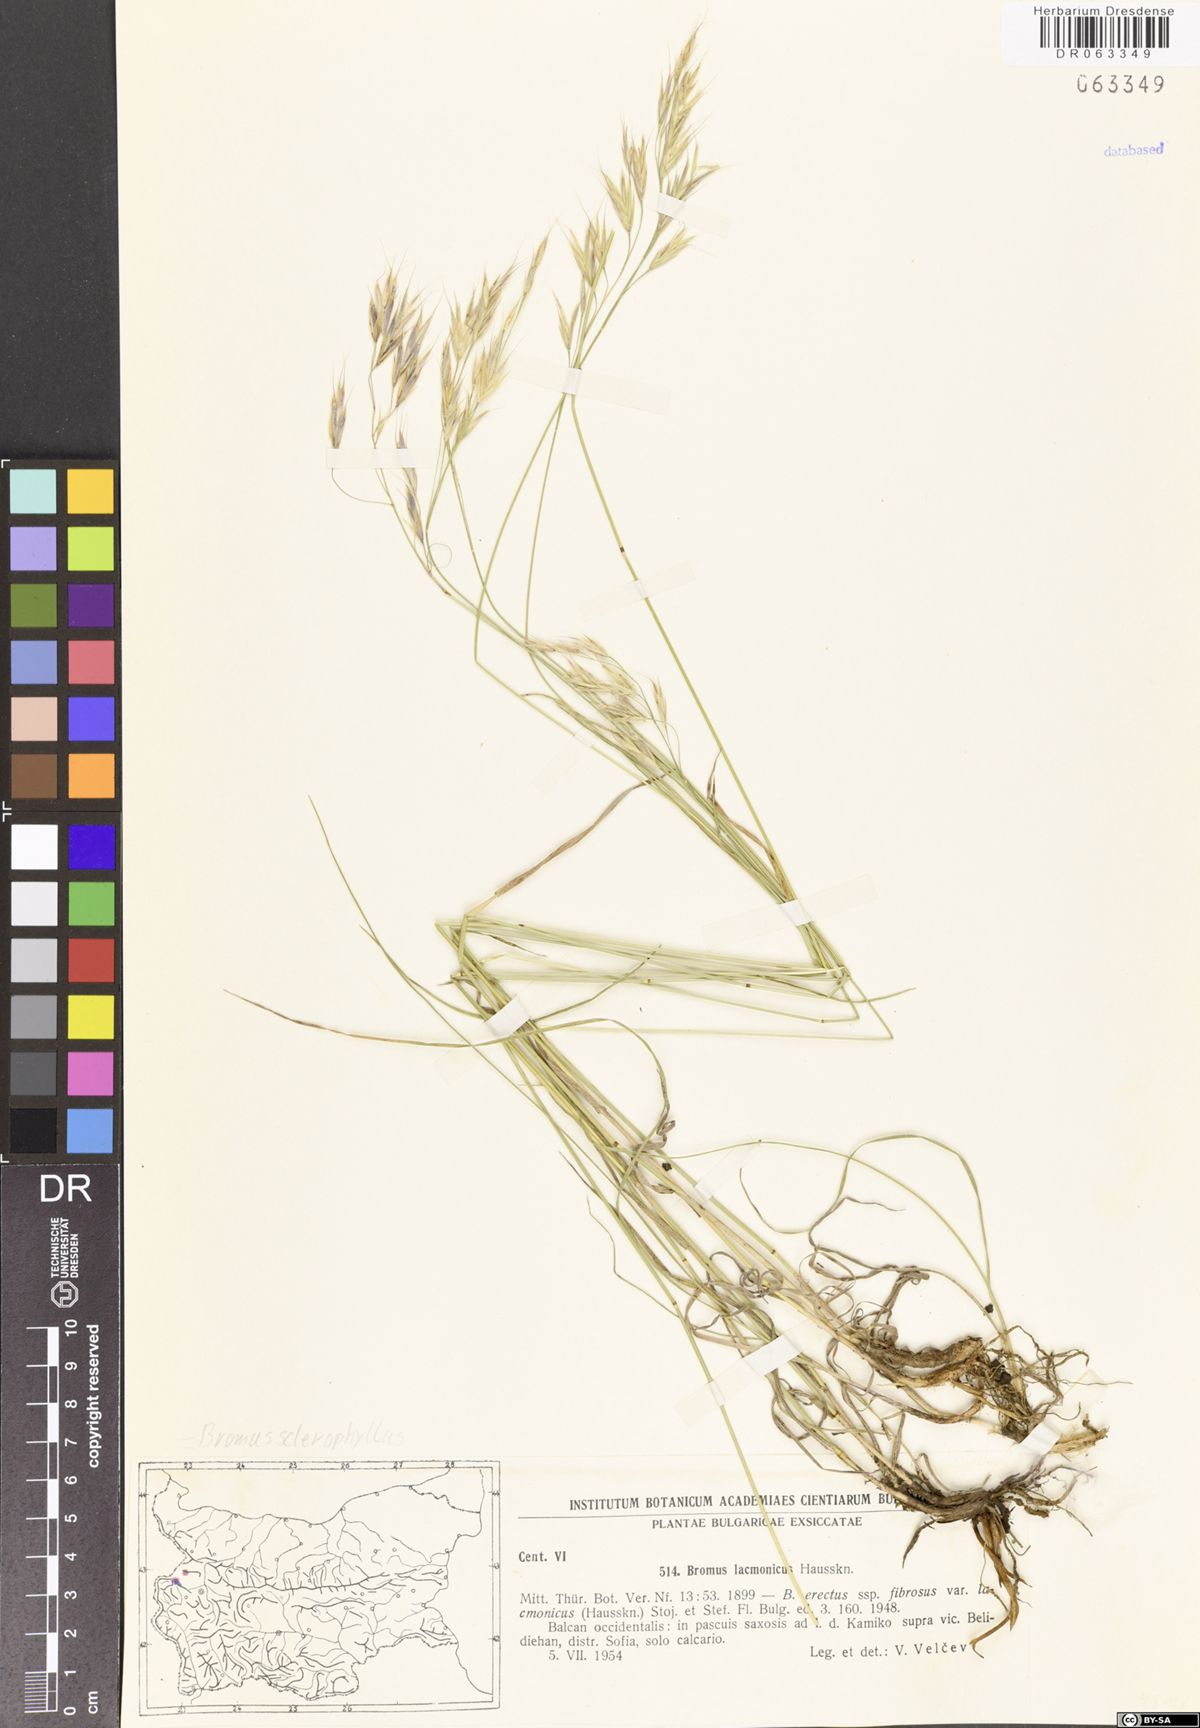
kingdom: Plantae
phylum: Tracheophyta
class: Liliopsida
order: Poales
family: Poaceae
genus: Bromus
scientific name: Bromus sclerophyllus
